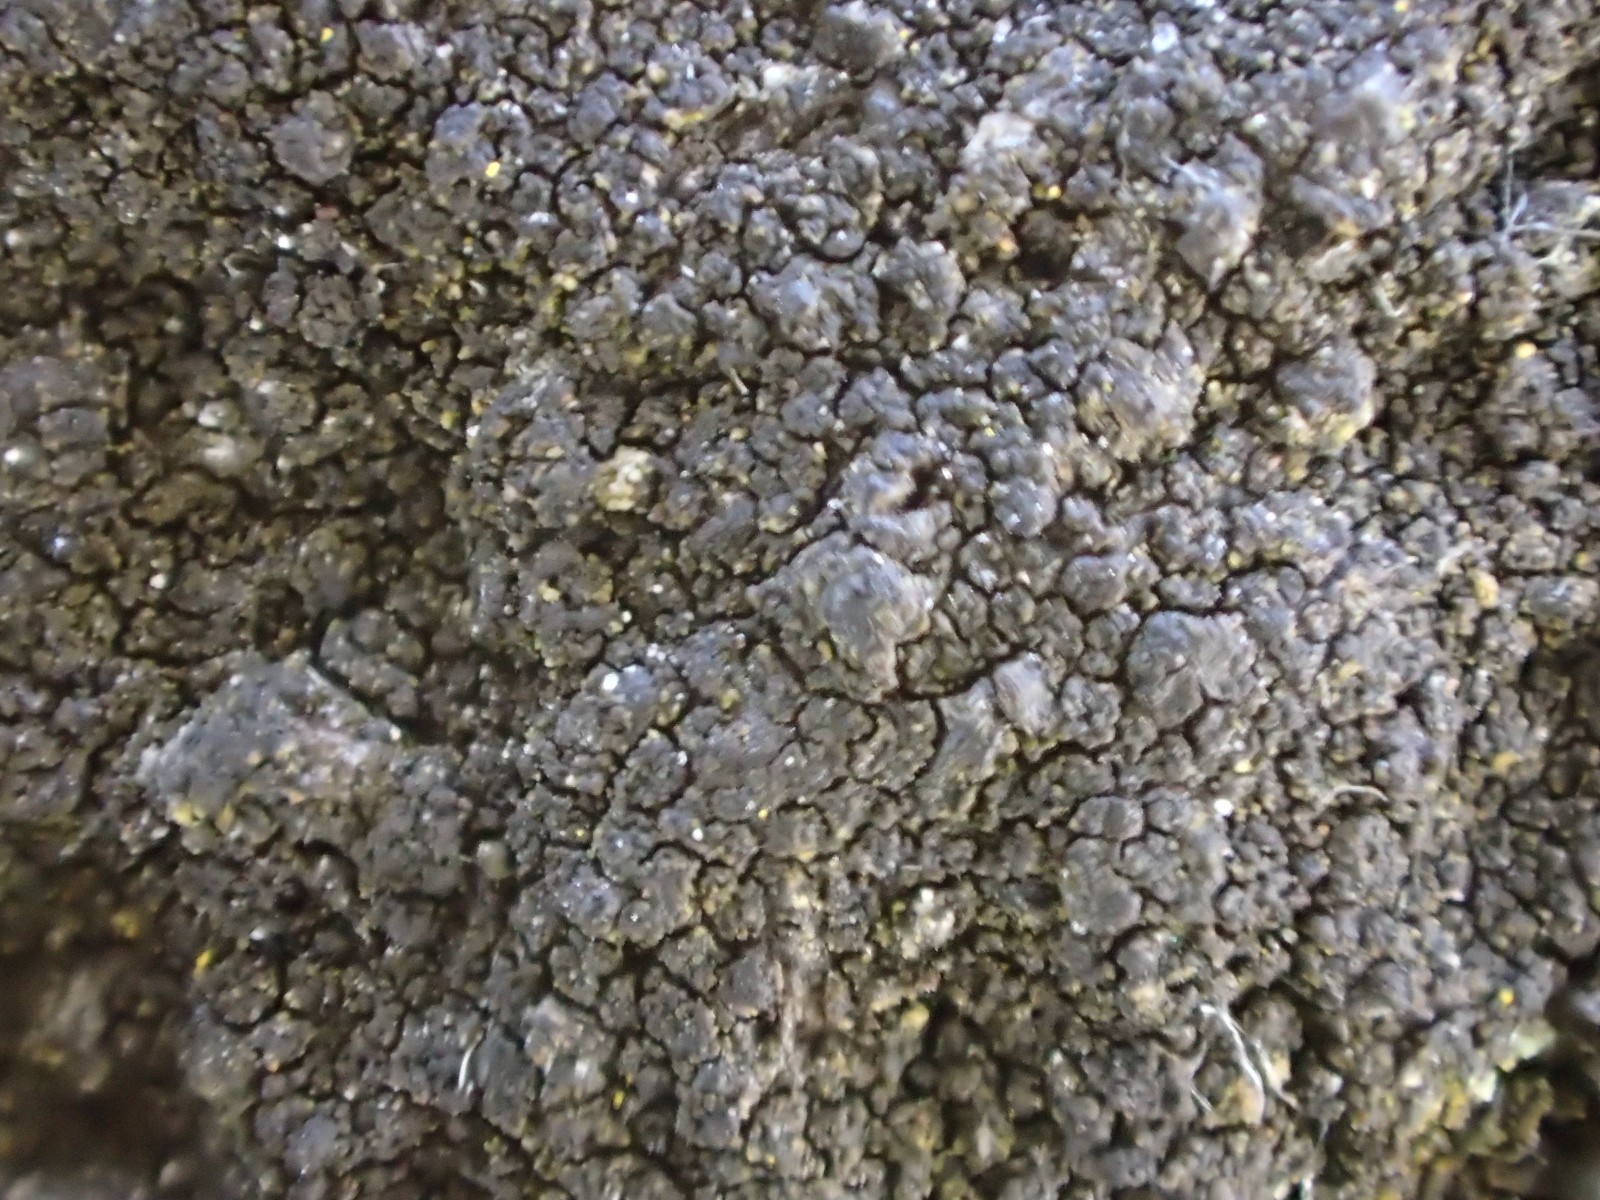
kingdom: Fungi
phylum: Ascomycota
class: Eurotiomycetes
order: Verrucariales
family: Verrucariaceae
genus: Verrucaria
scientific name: Verrucaria nigrescens
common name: sortbrun vortelav
